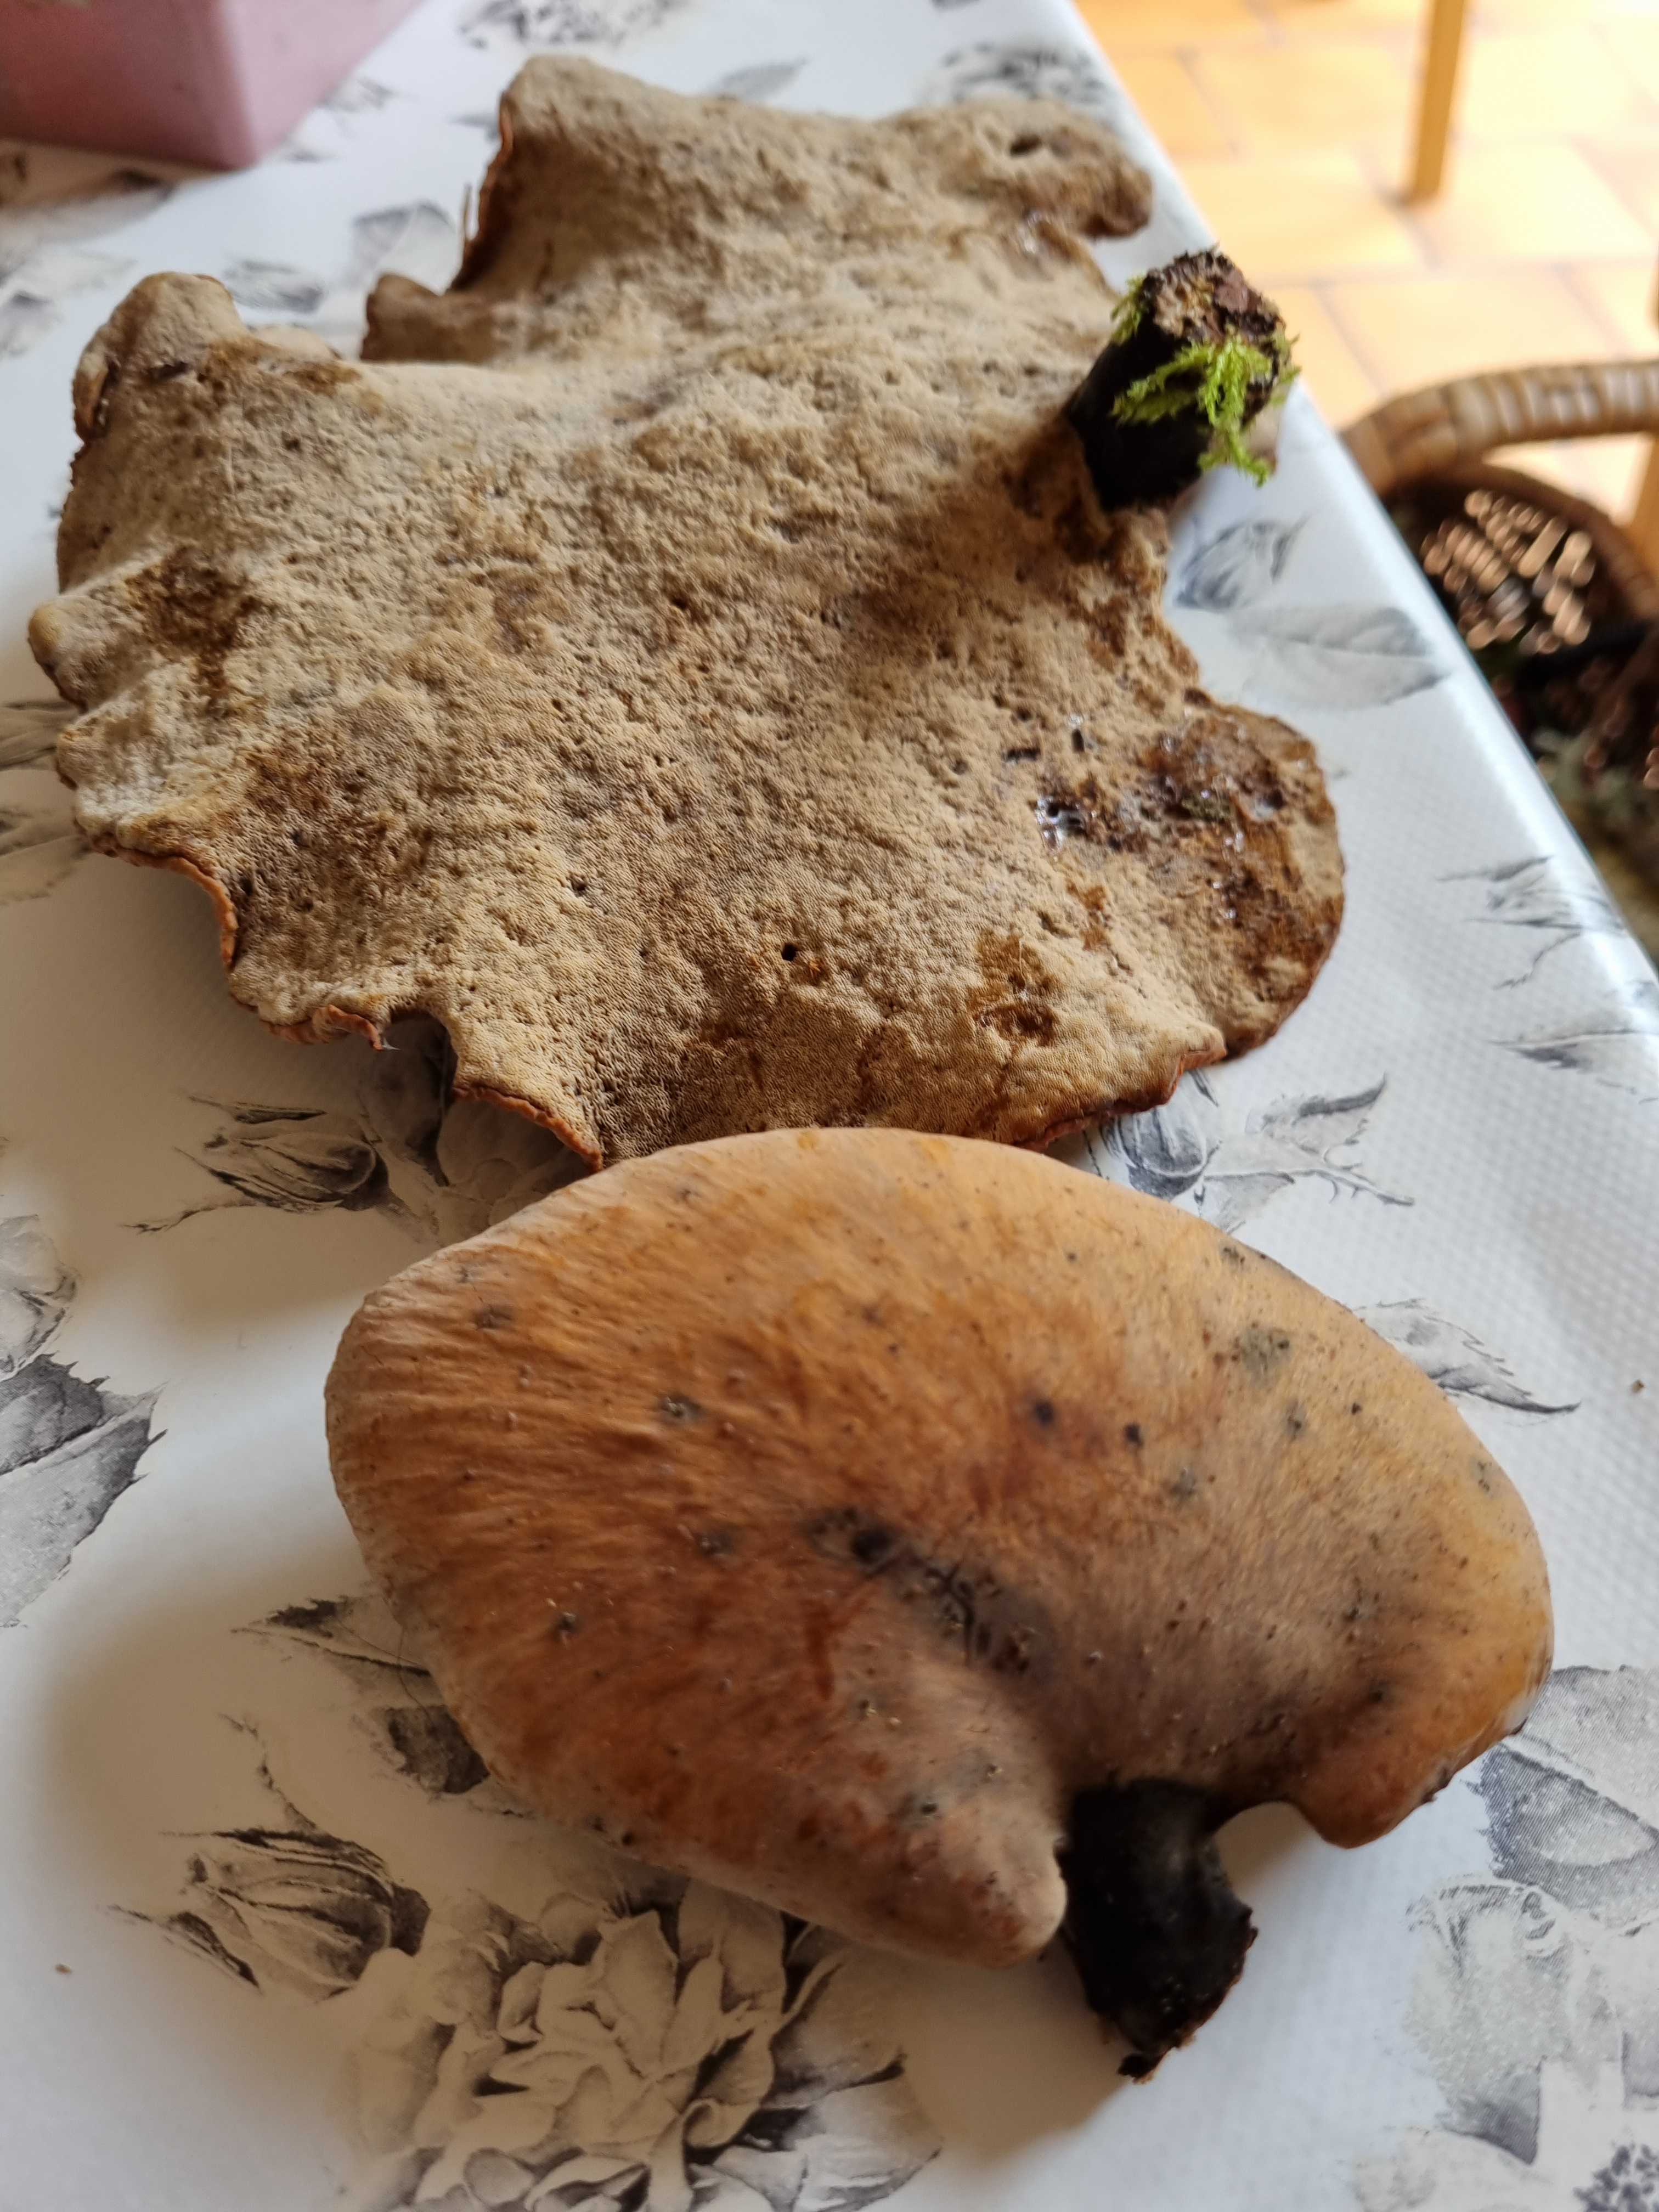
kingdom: Fungi
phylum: Basidiomycota
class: Agaricomycetes
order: Polyporales
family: Polyporaceae
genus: Cerioporus
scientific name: Cerioporus varius
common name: foranderlig stilkporesvamp
